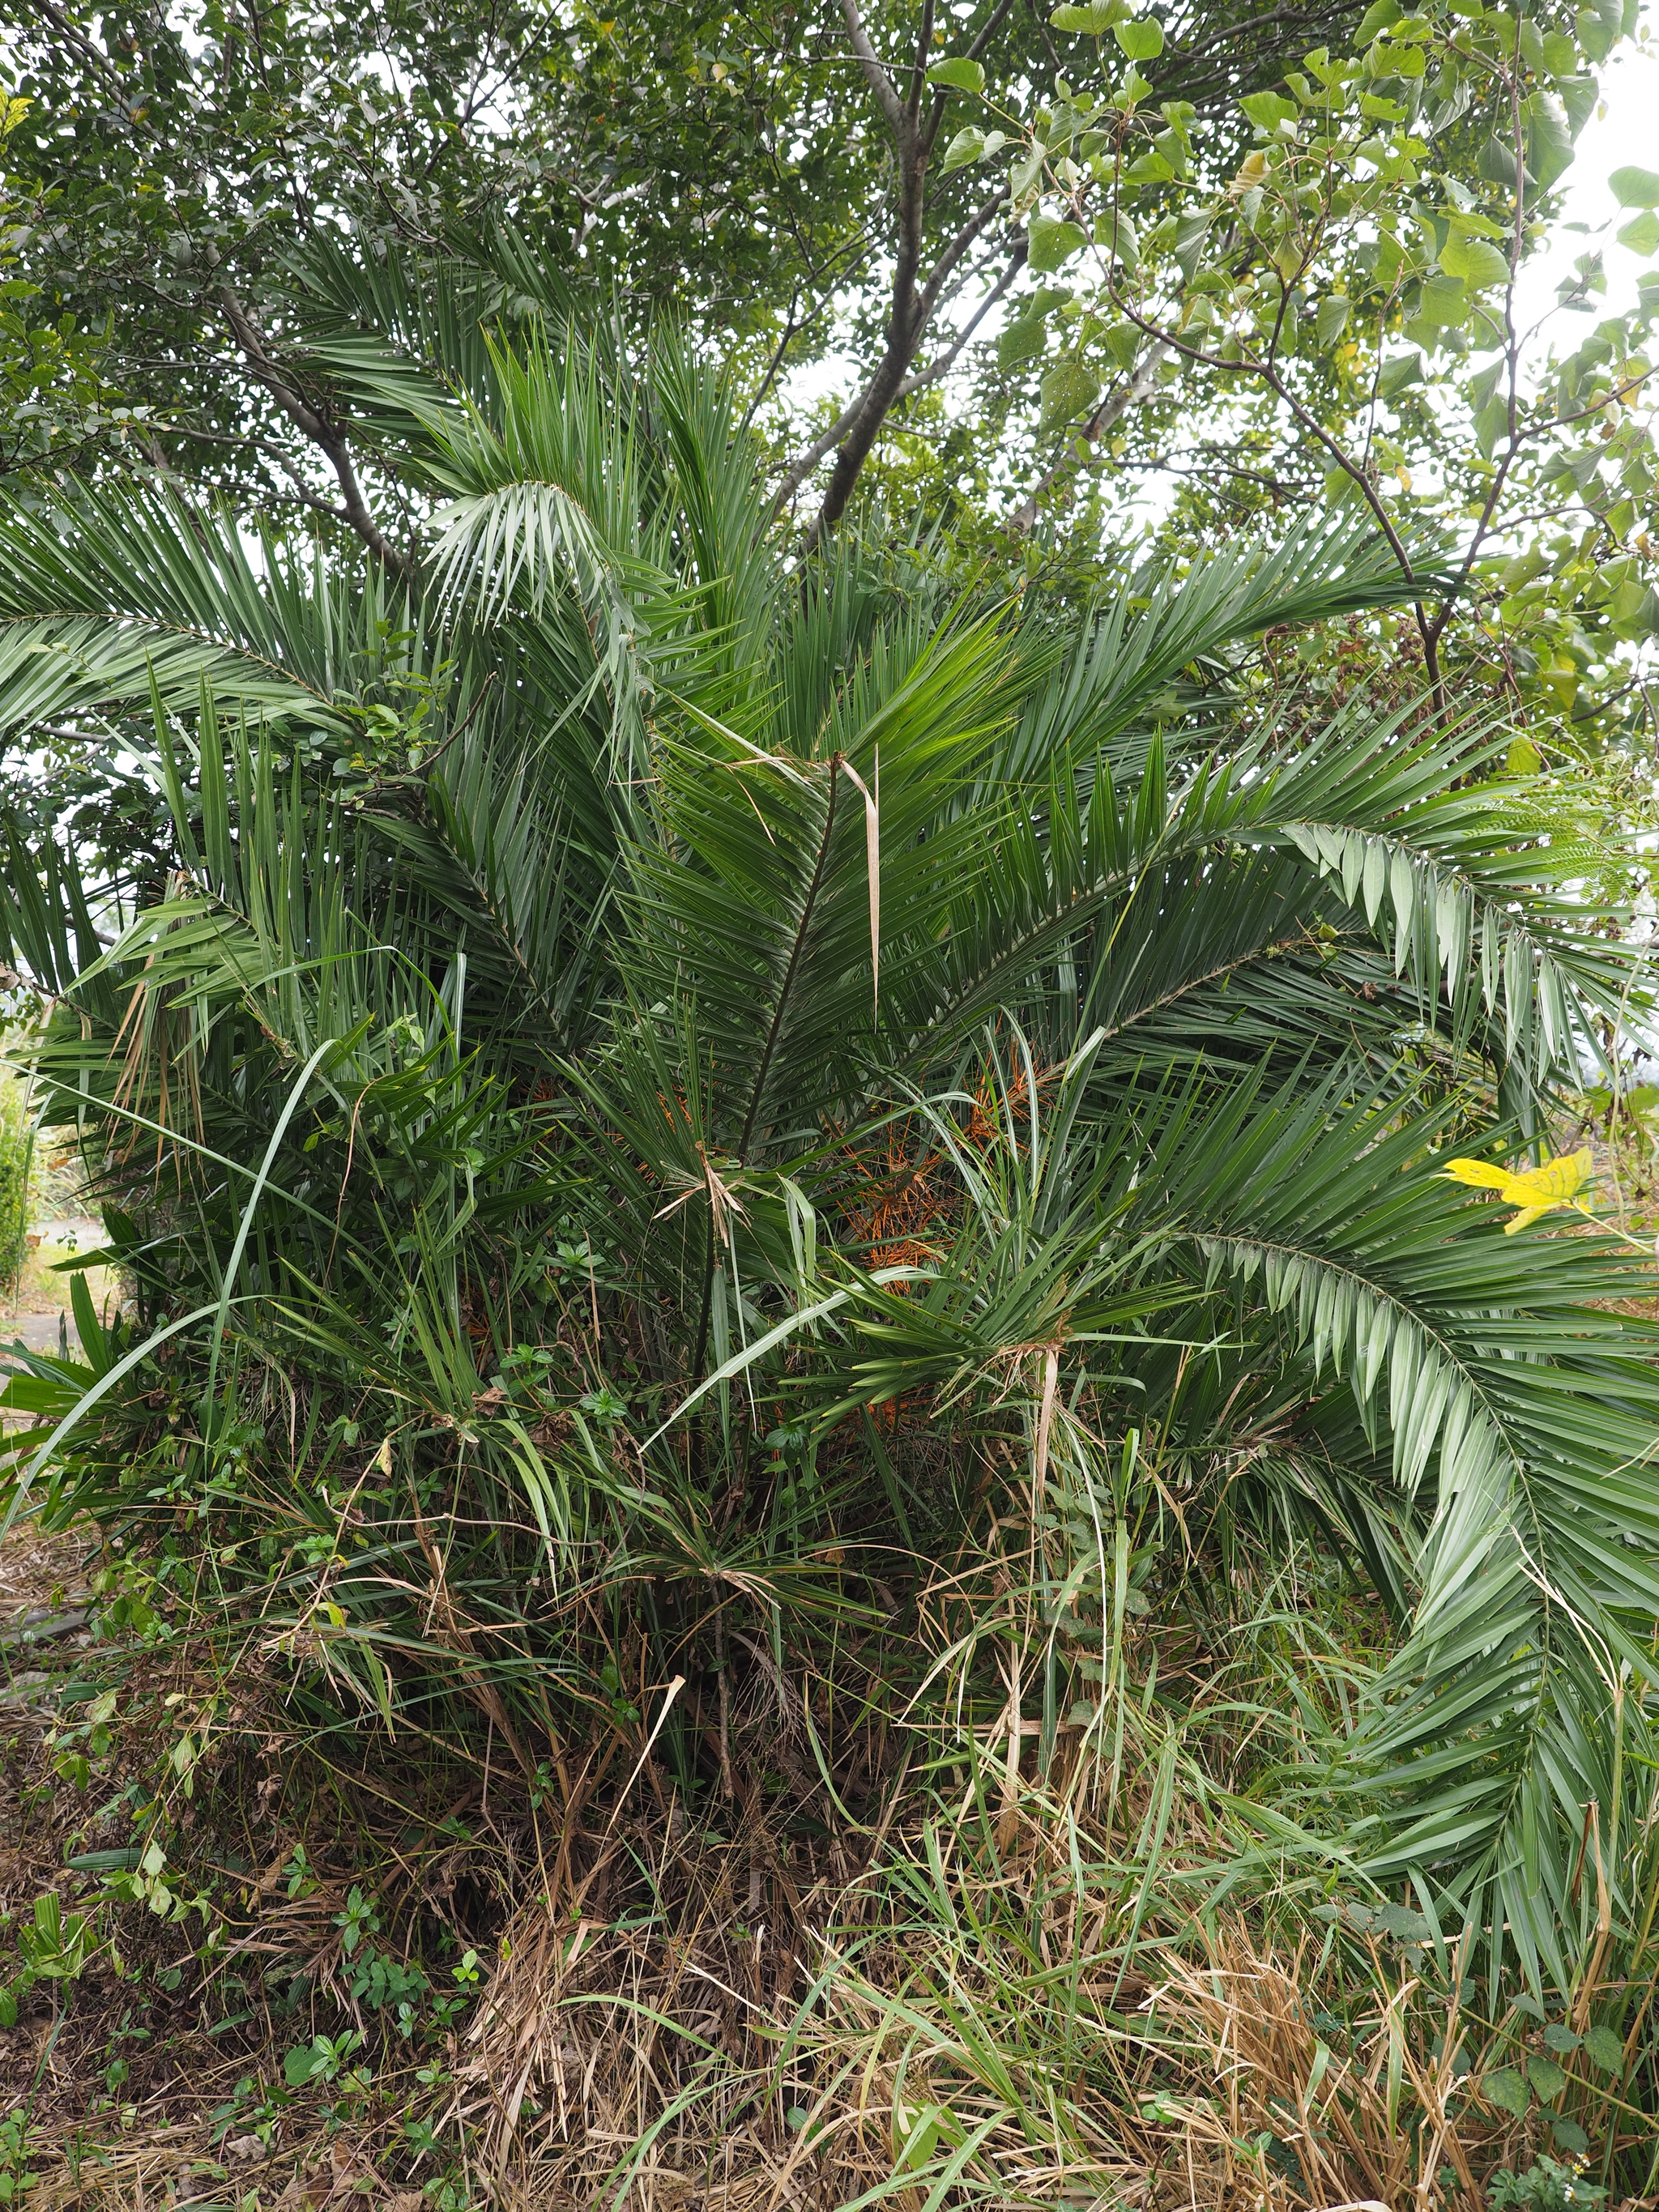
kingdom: Plantae
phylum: Tracheophyta
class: Liliopsida
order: Arecales
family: Arecaceae
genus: Phoenix
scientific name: Phoenix loureiroi
